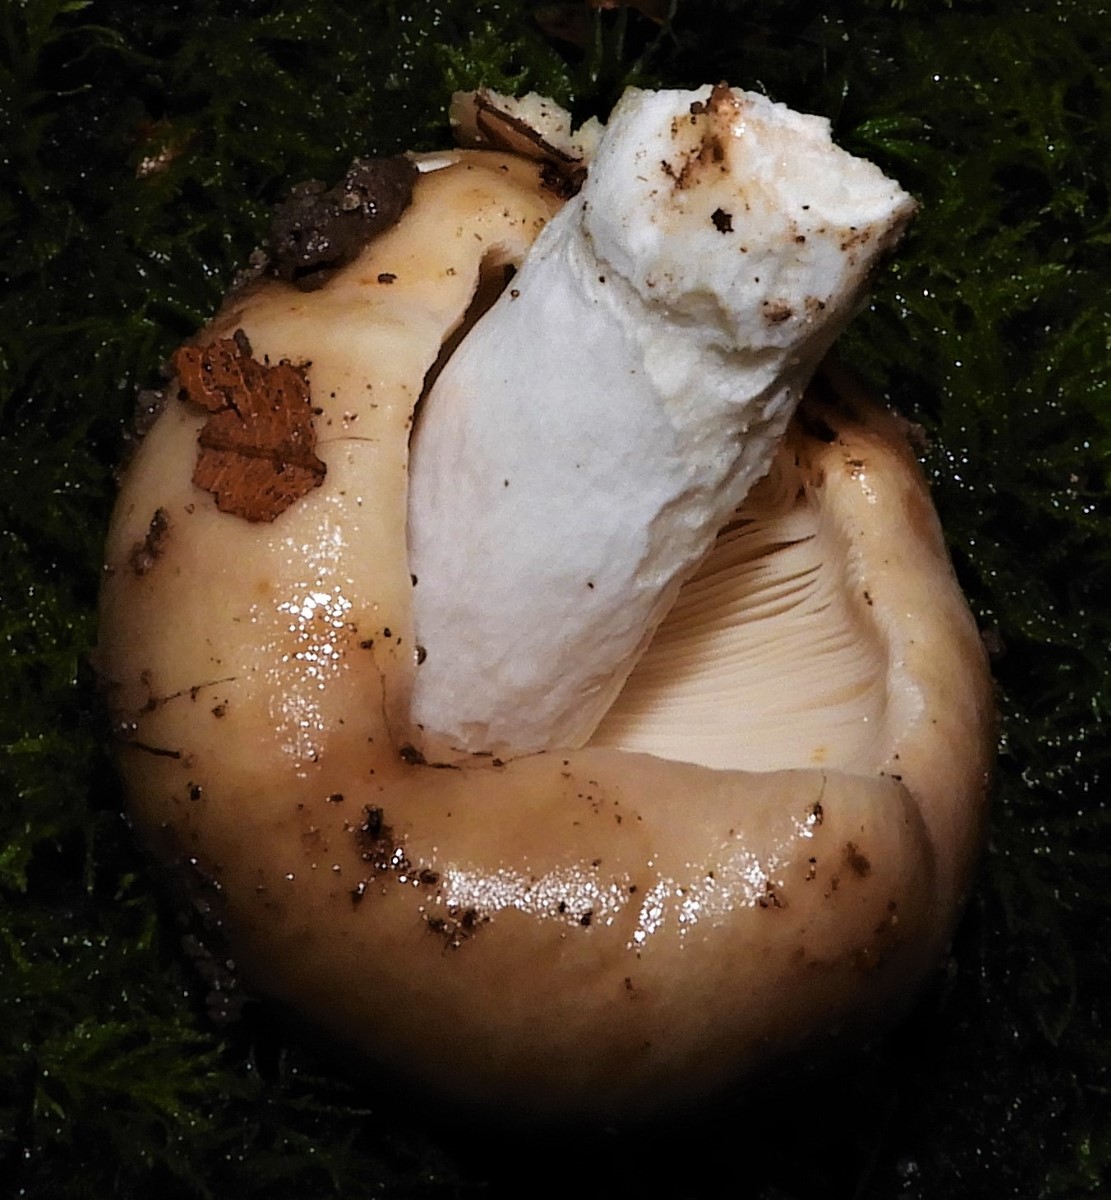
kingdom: Fungi
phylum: Basidiomycota
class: Agaricomycetes
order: Russulales
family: Russulaceae
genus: Russula
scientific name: Russula
